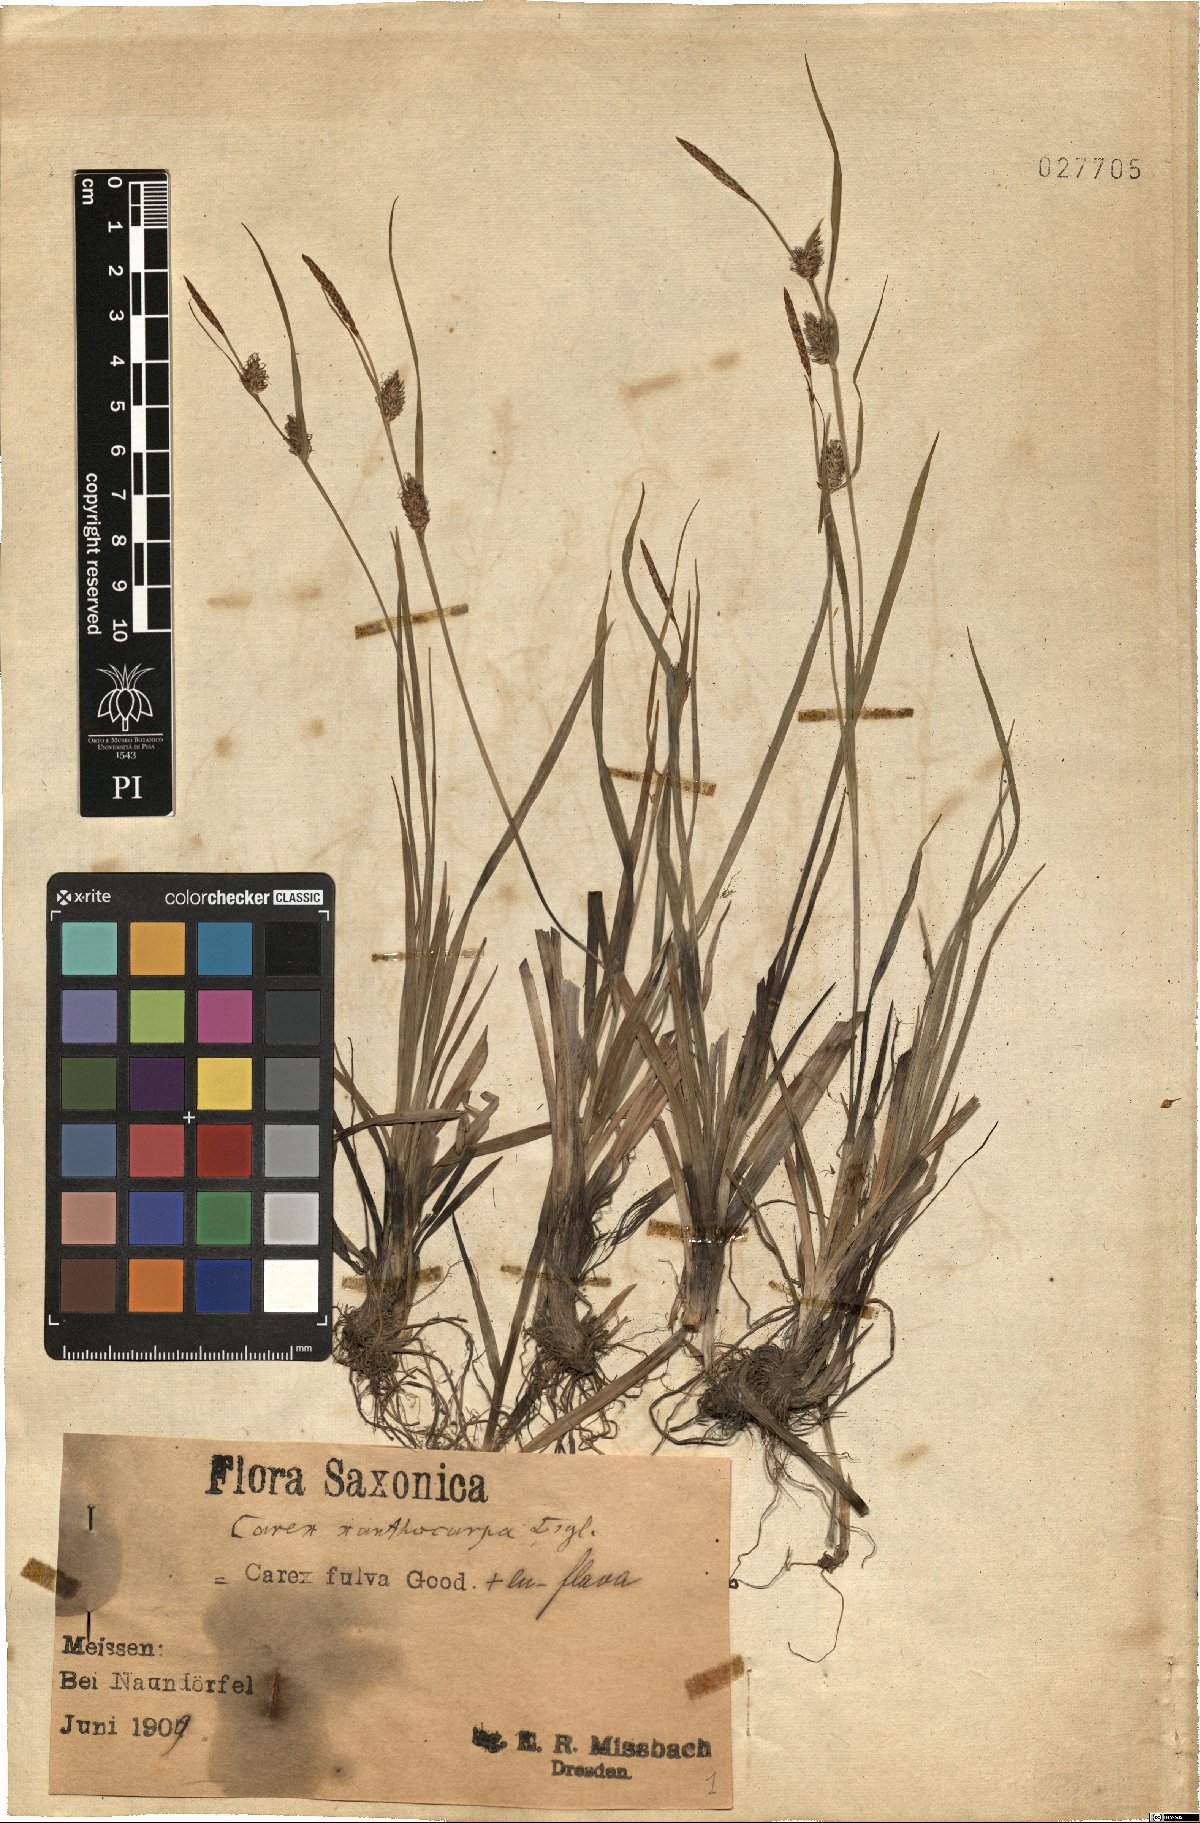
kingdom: Plantae
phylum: Tracheophyta
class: Liliopsida
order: Poales
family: Cyperaceae
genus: Carex
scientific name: Carex xanthocarpa
